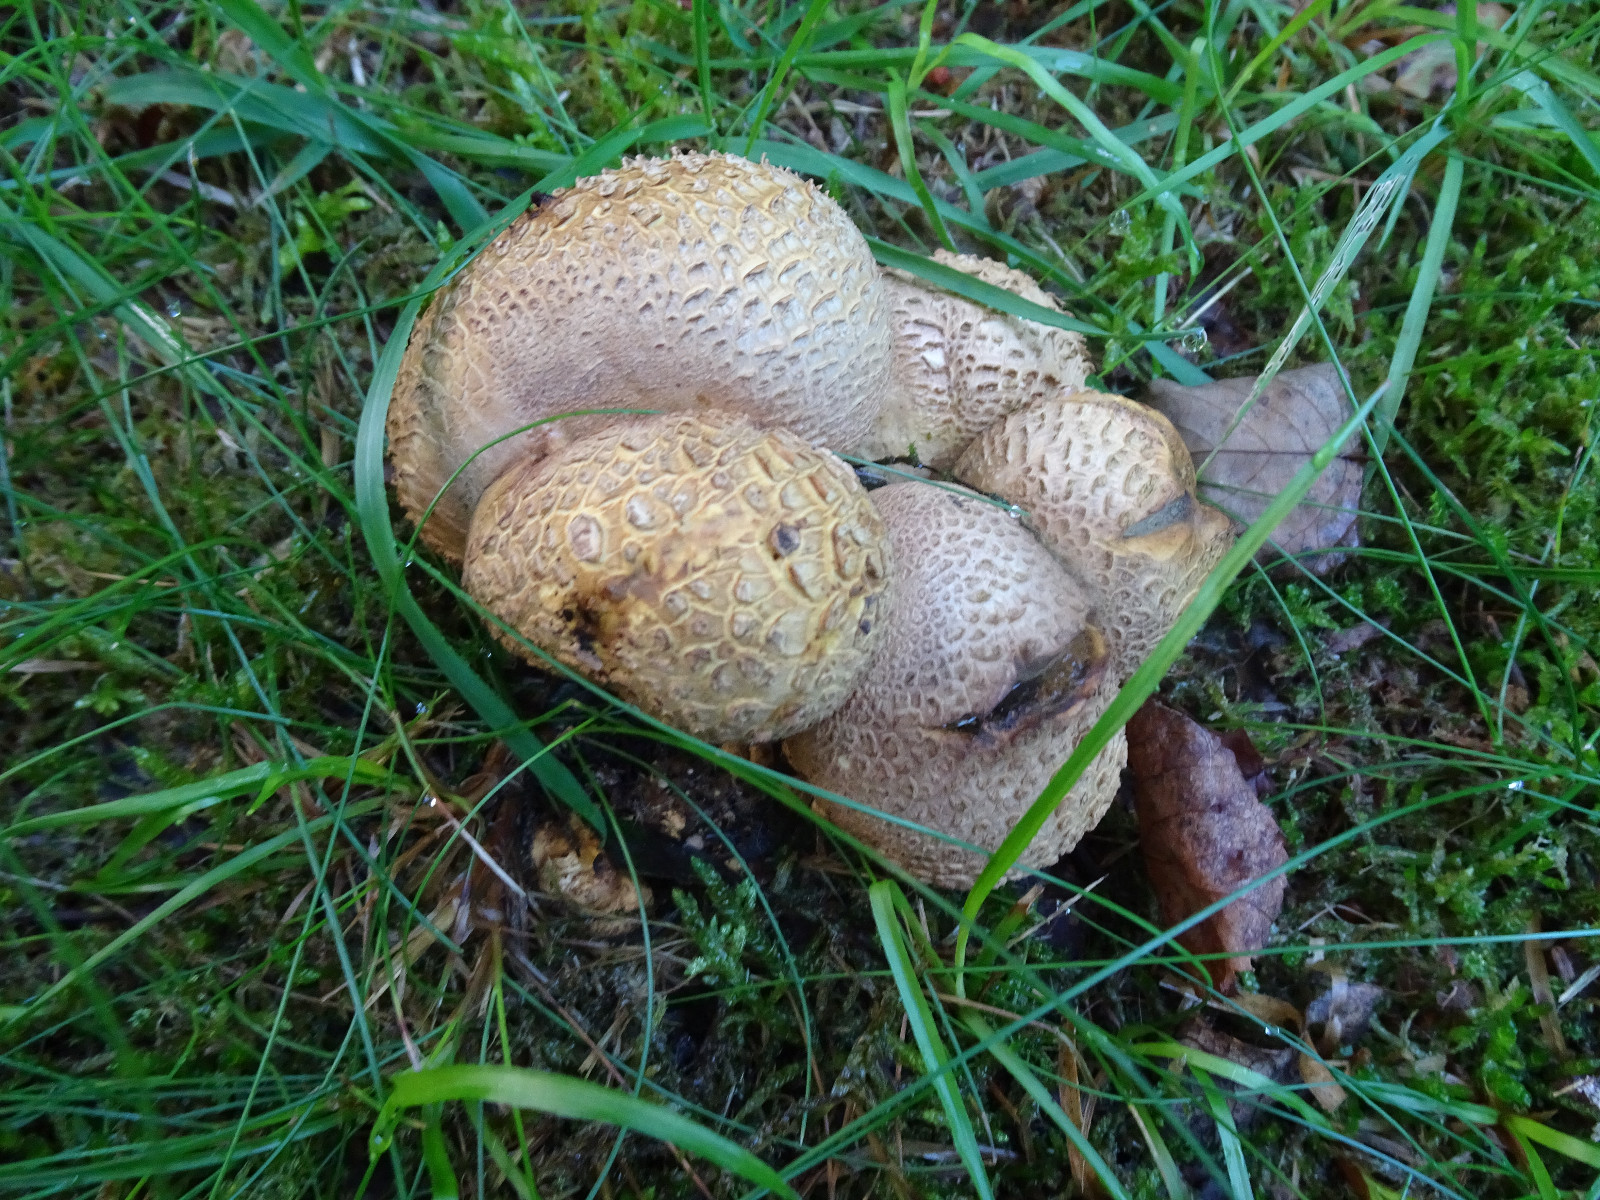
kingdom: Fungi
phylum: Basidiomycota
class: Agaricomycetes
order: Boletales
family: Sclerodermataceae
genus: Scleroderma
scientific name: Scleroderma citrinum
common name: almindelig bruskbold
